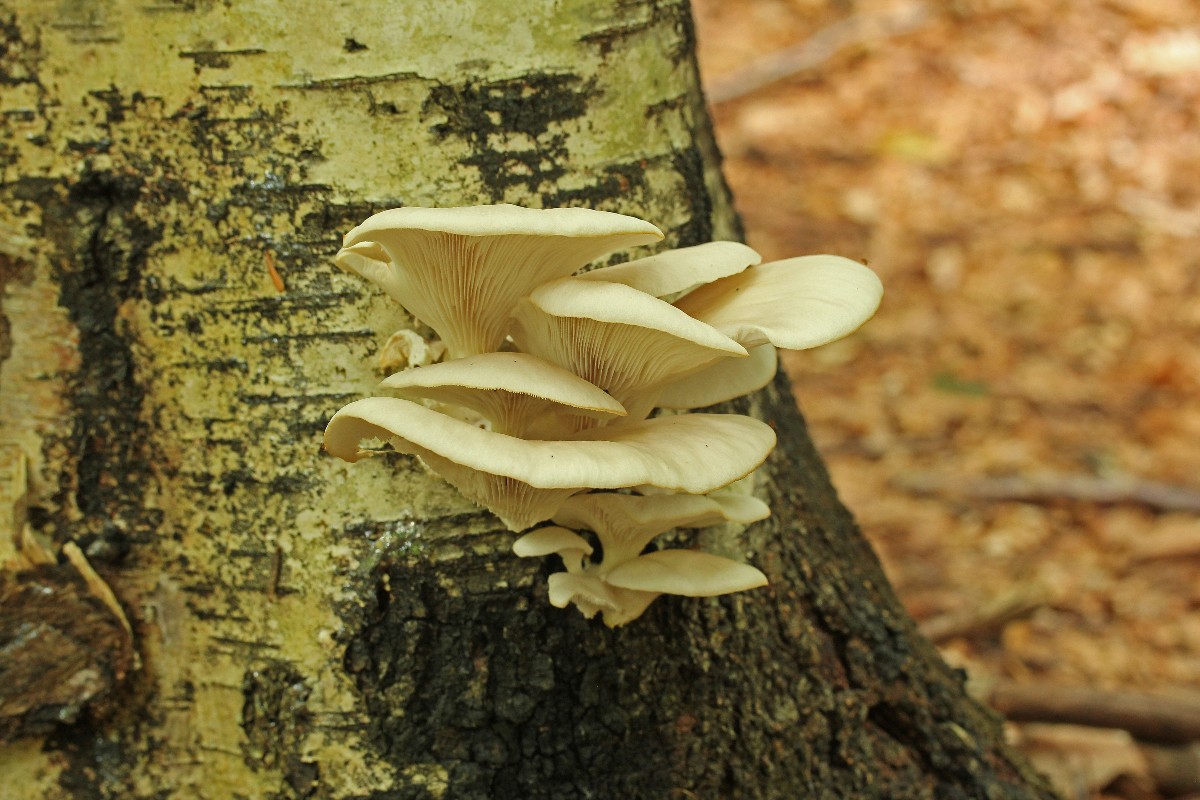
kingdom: Fungi
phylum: Basidiomycota
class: Agaricomycetes
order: Agaricales
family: Pleurotaceae
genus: Pleurotus
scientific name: Pleurotus pulmonarius
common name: sommer-østershat
